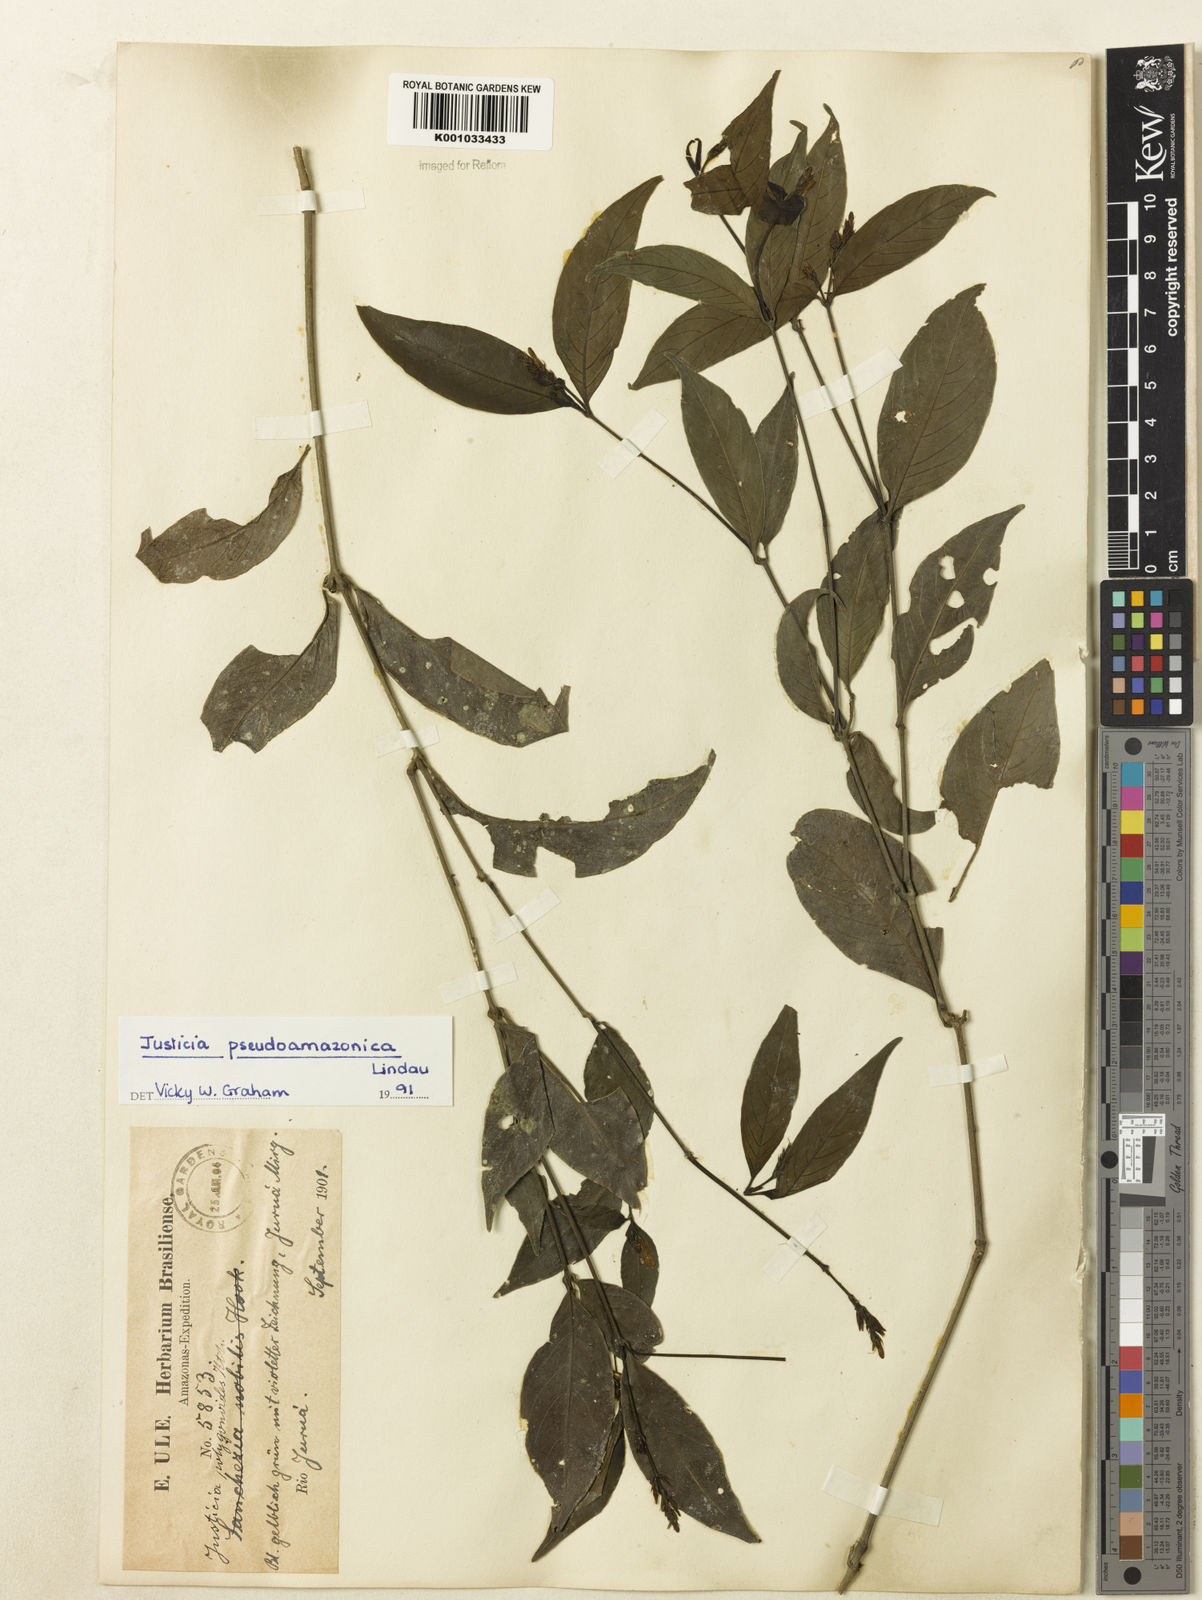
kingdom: Plantae
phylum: Tracheophyta
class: Magnoliopsida
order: Lamiales
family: Acanthaceae
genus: Justicia
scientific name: Justicia pseudoamazonica
